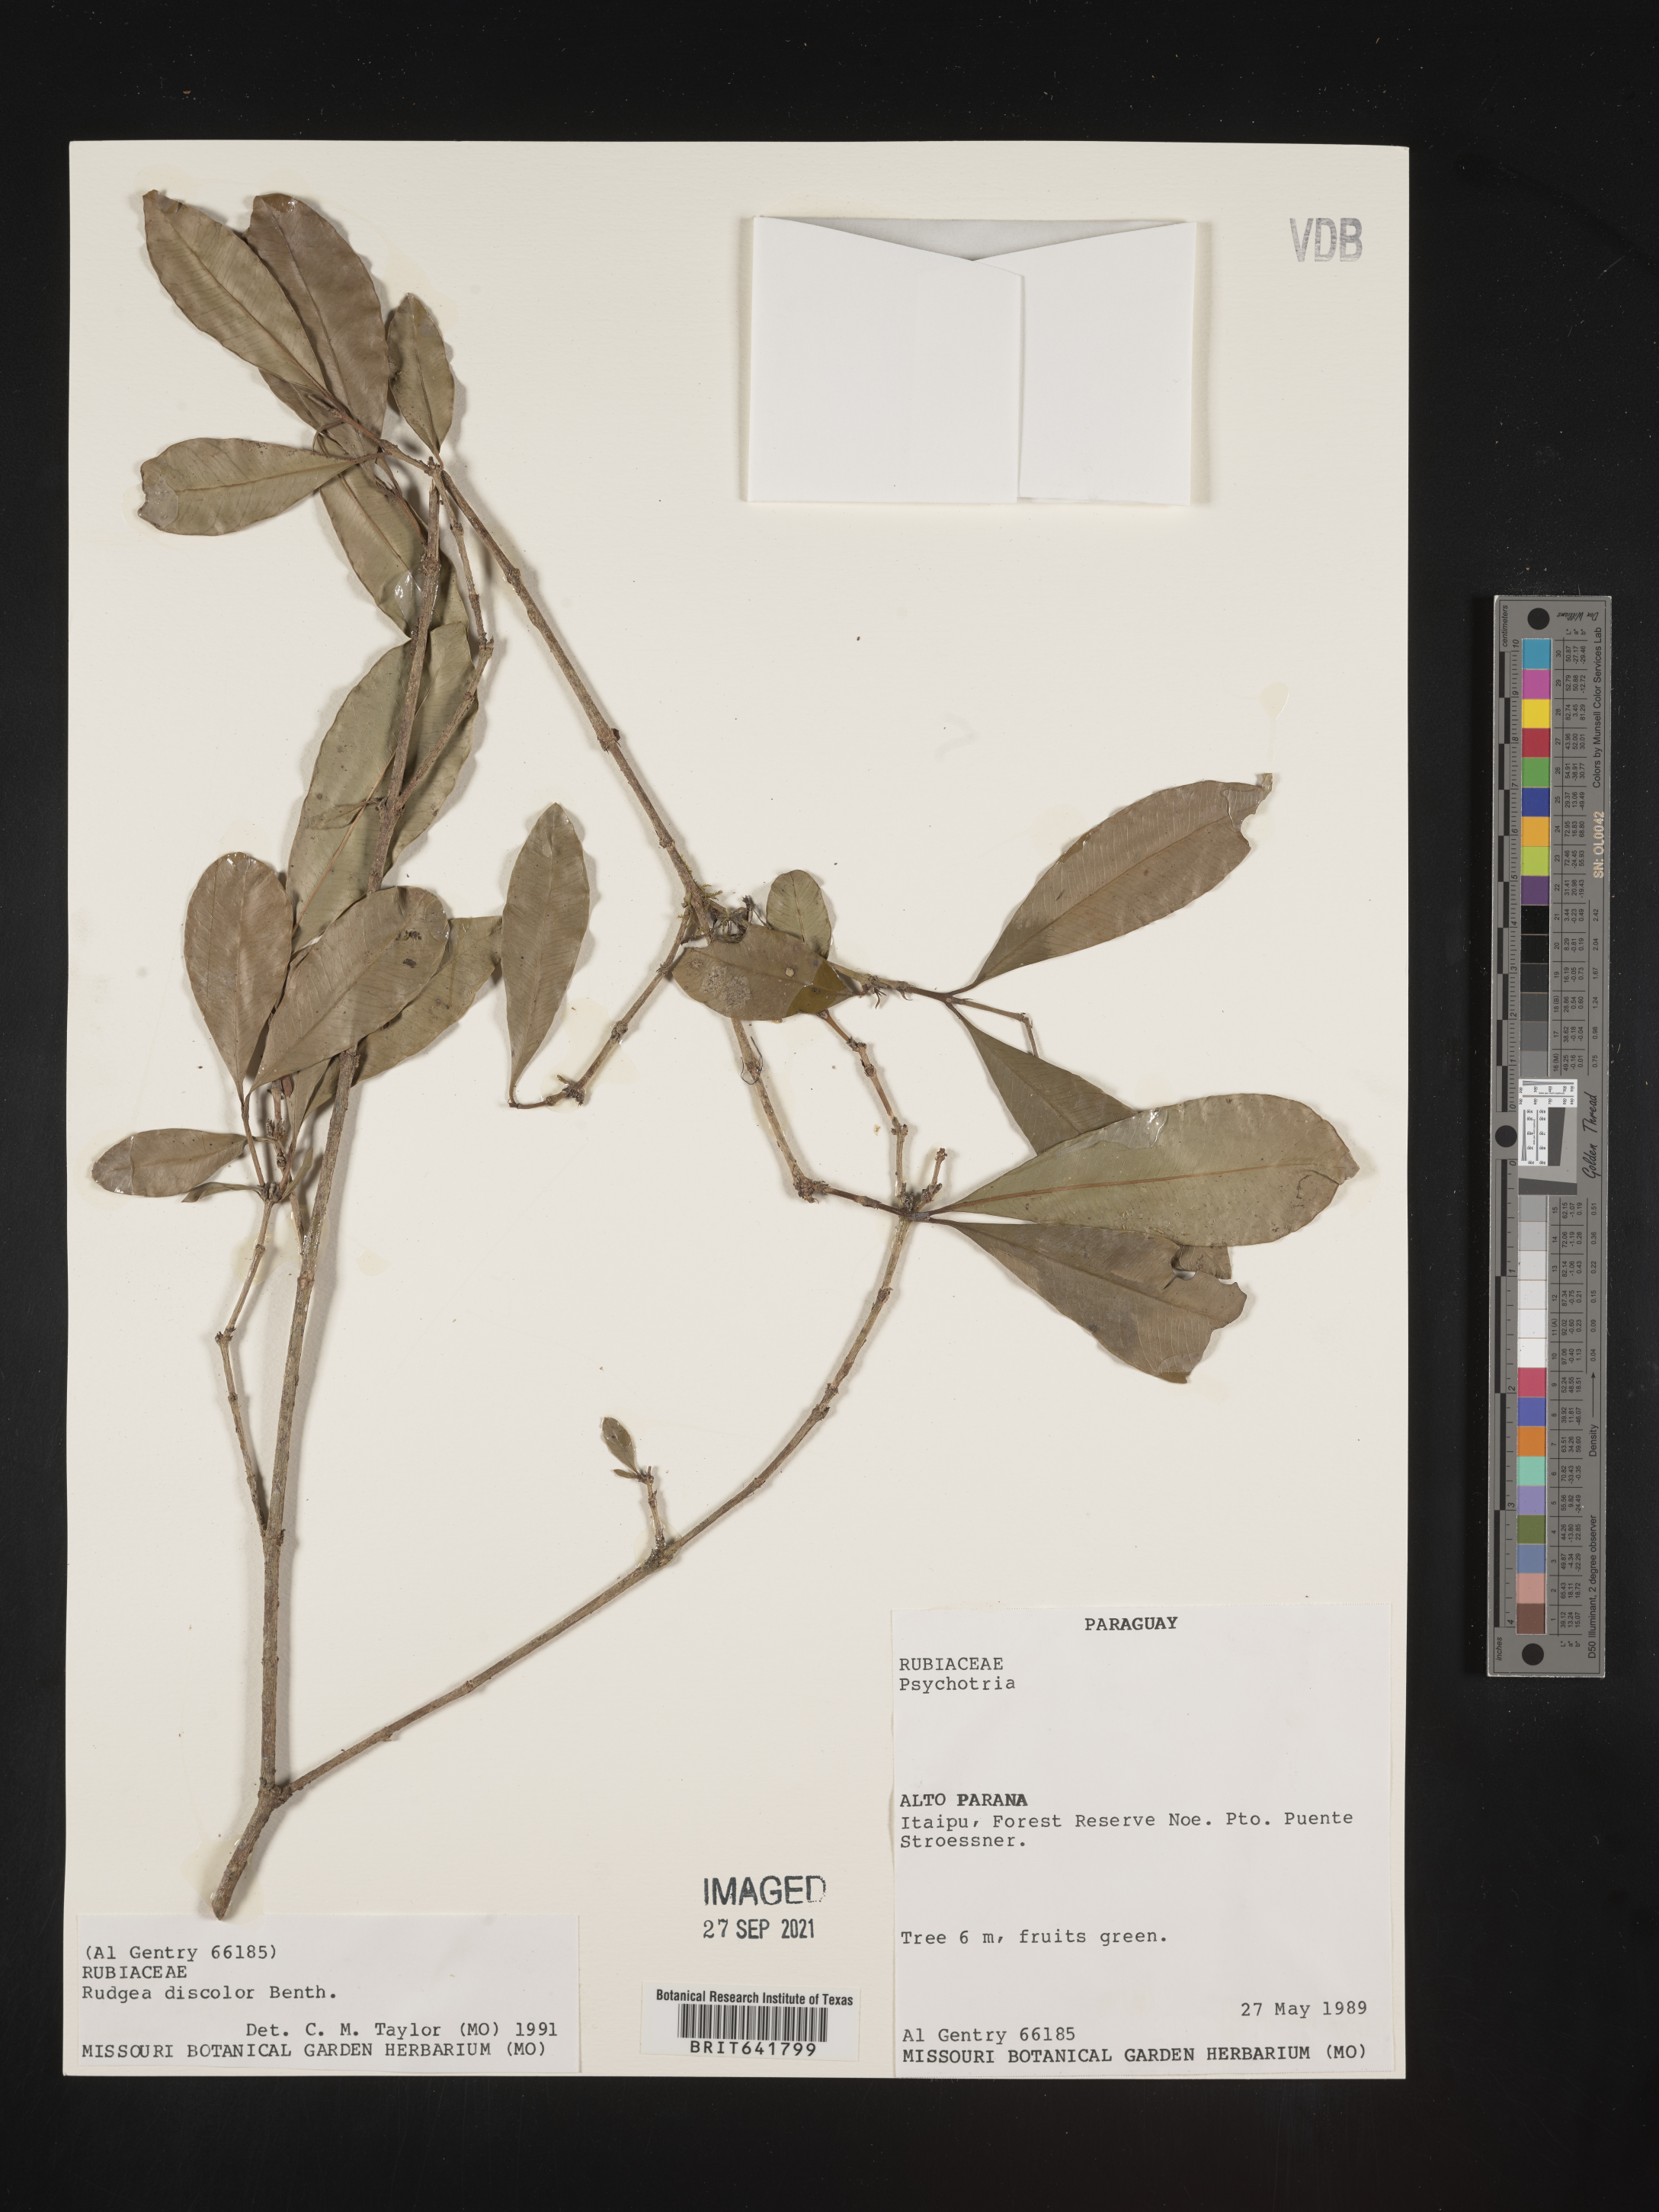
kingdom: Plantae
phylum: Tracheophyta
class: Magnoliopsida
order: Gentianales
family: Rubiaceae
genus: Rudgea
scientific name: Rudgea
